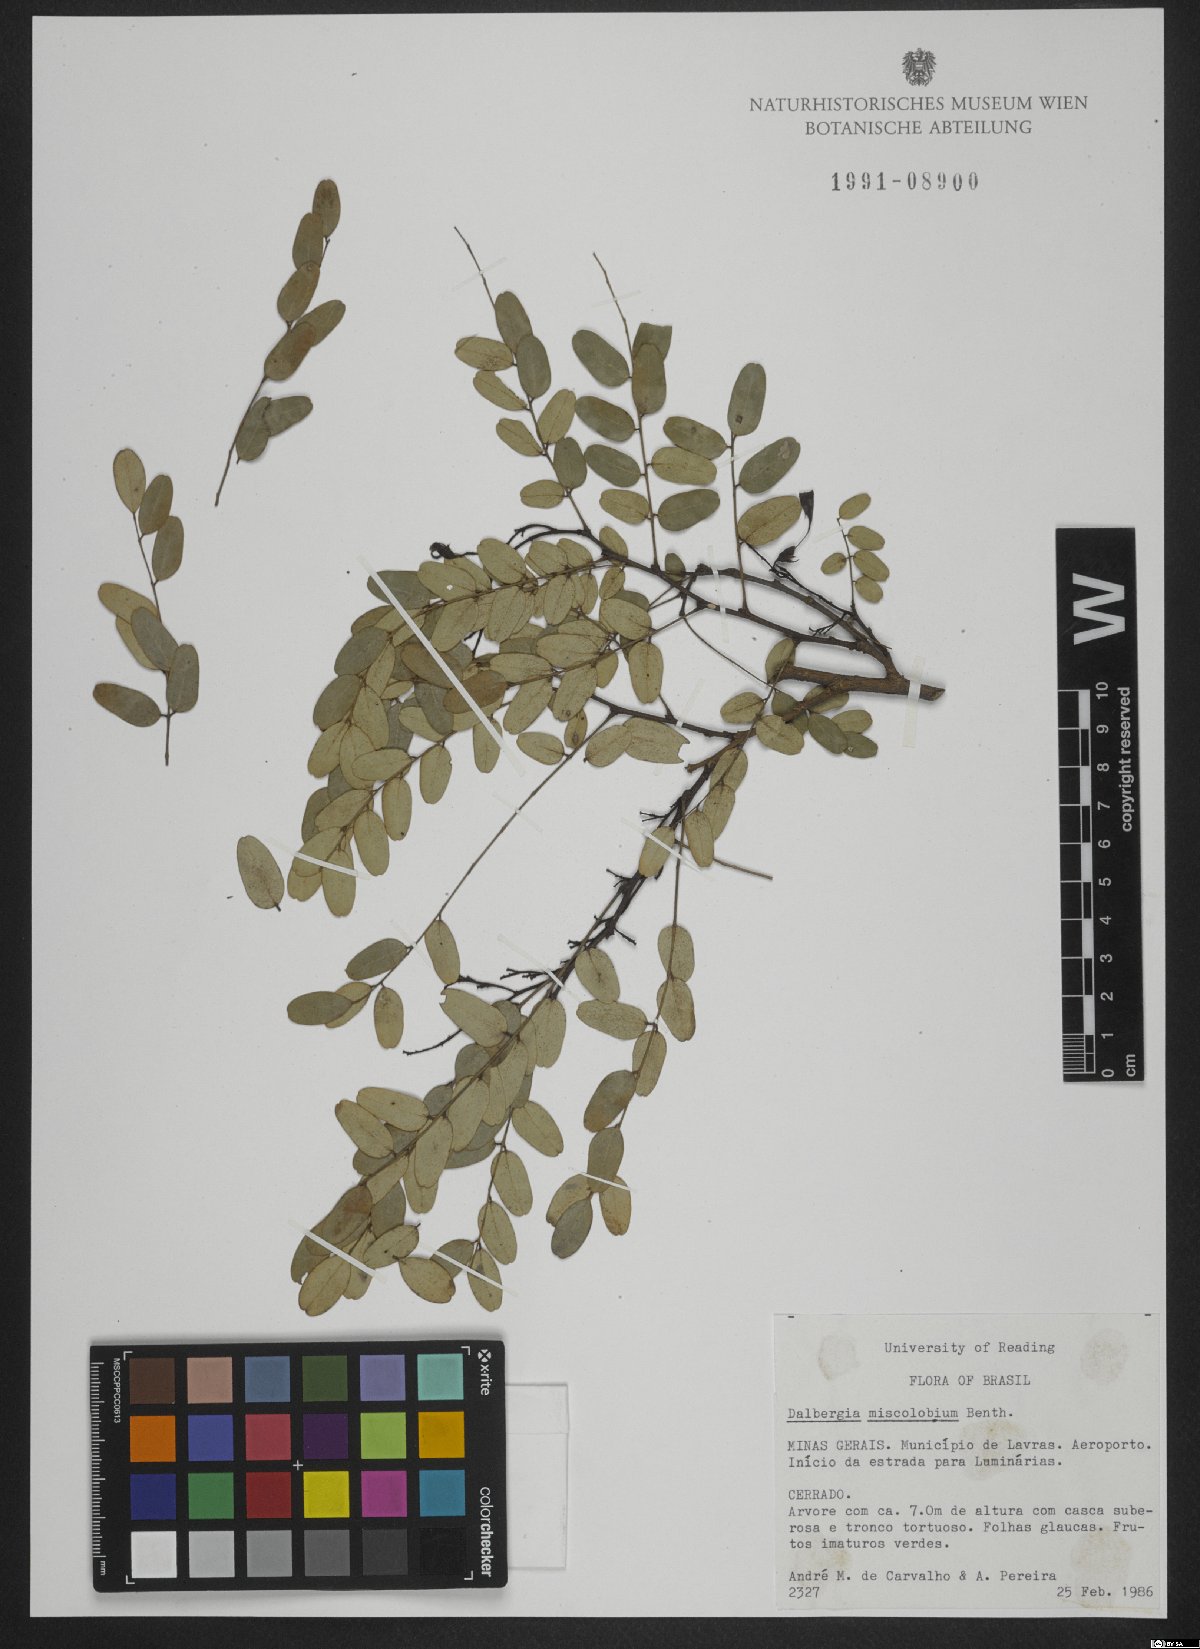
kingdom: Plantae
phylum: Tracheophyta
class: Magnoliopsida
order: Fabales
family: Fabaceae
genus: Dalbergia
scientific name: Dalbergia miscolobium
